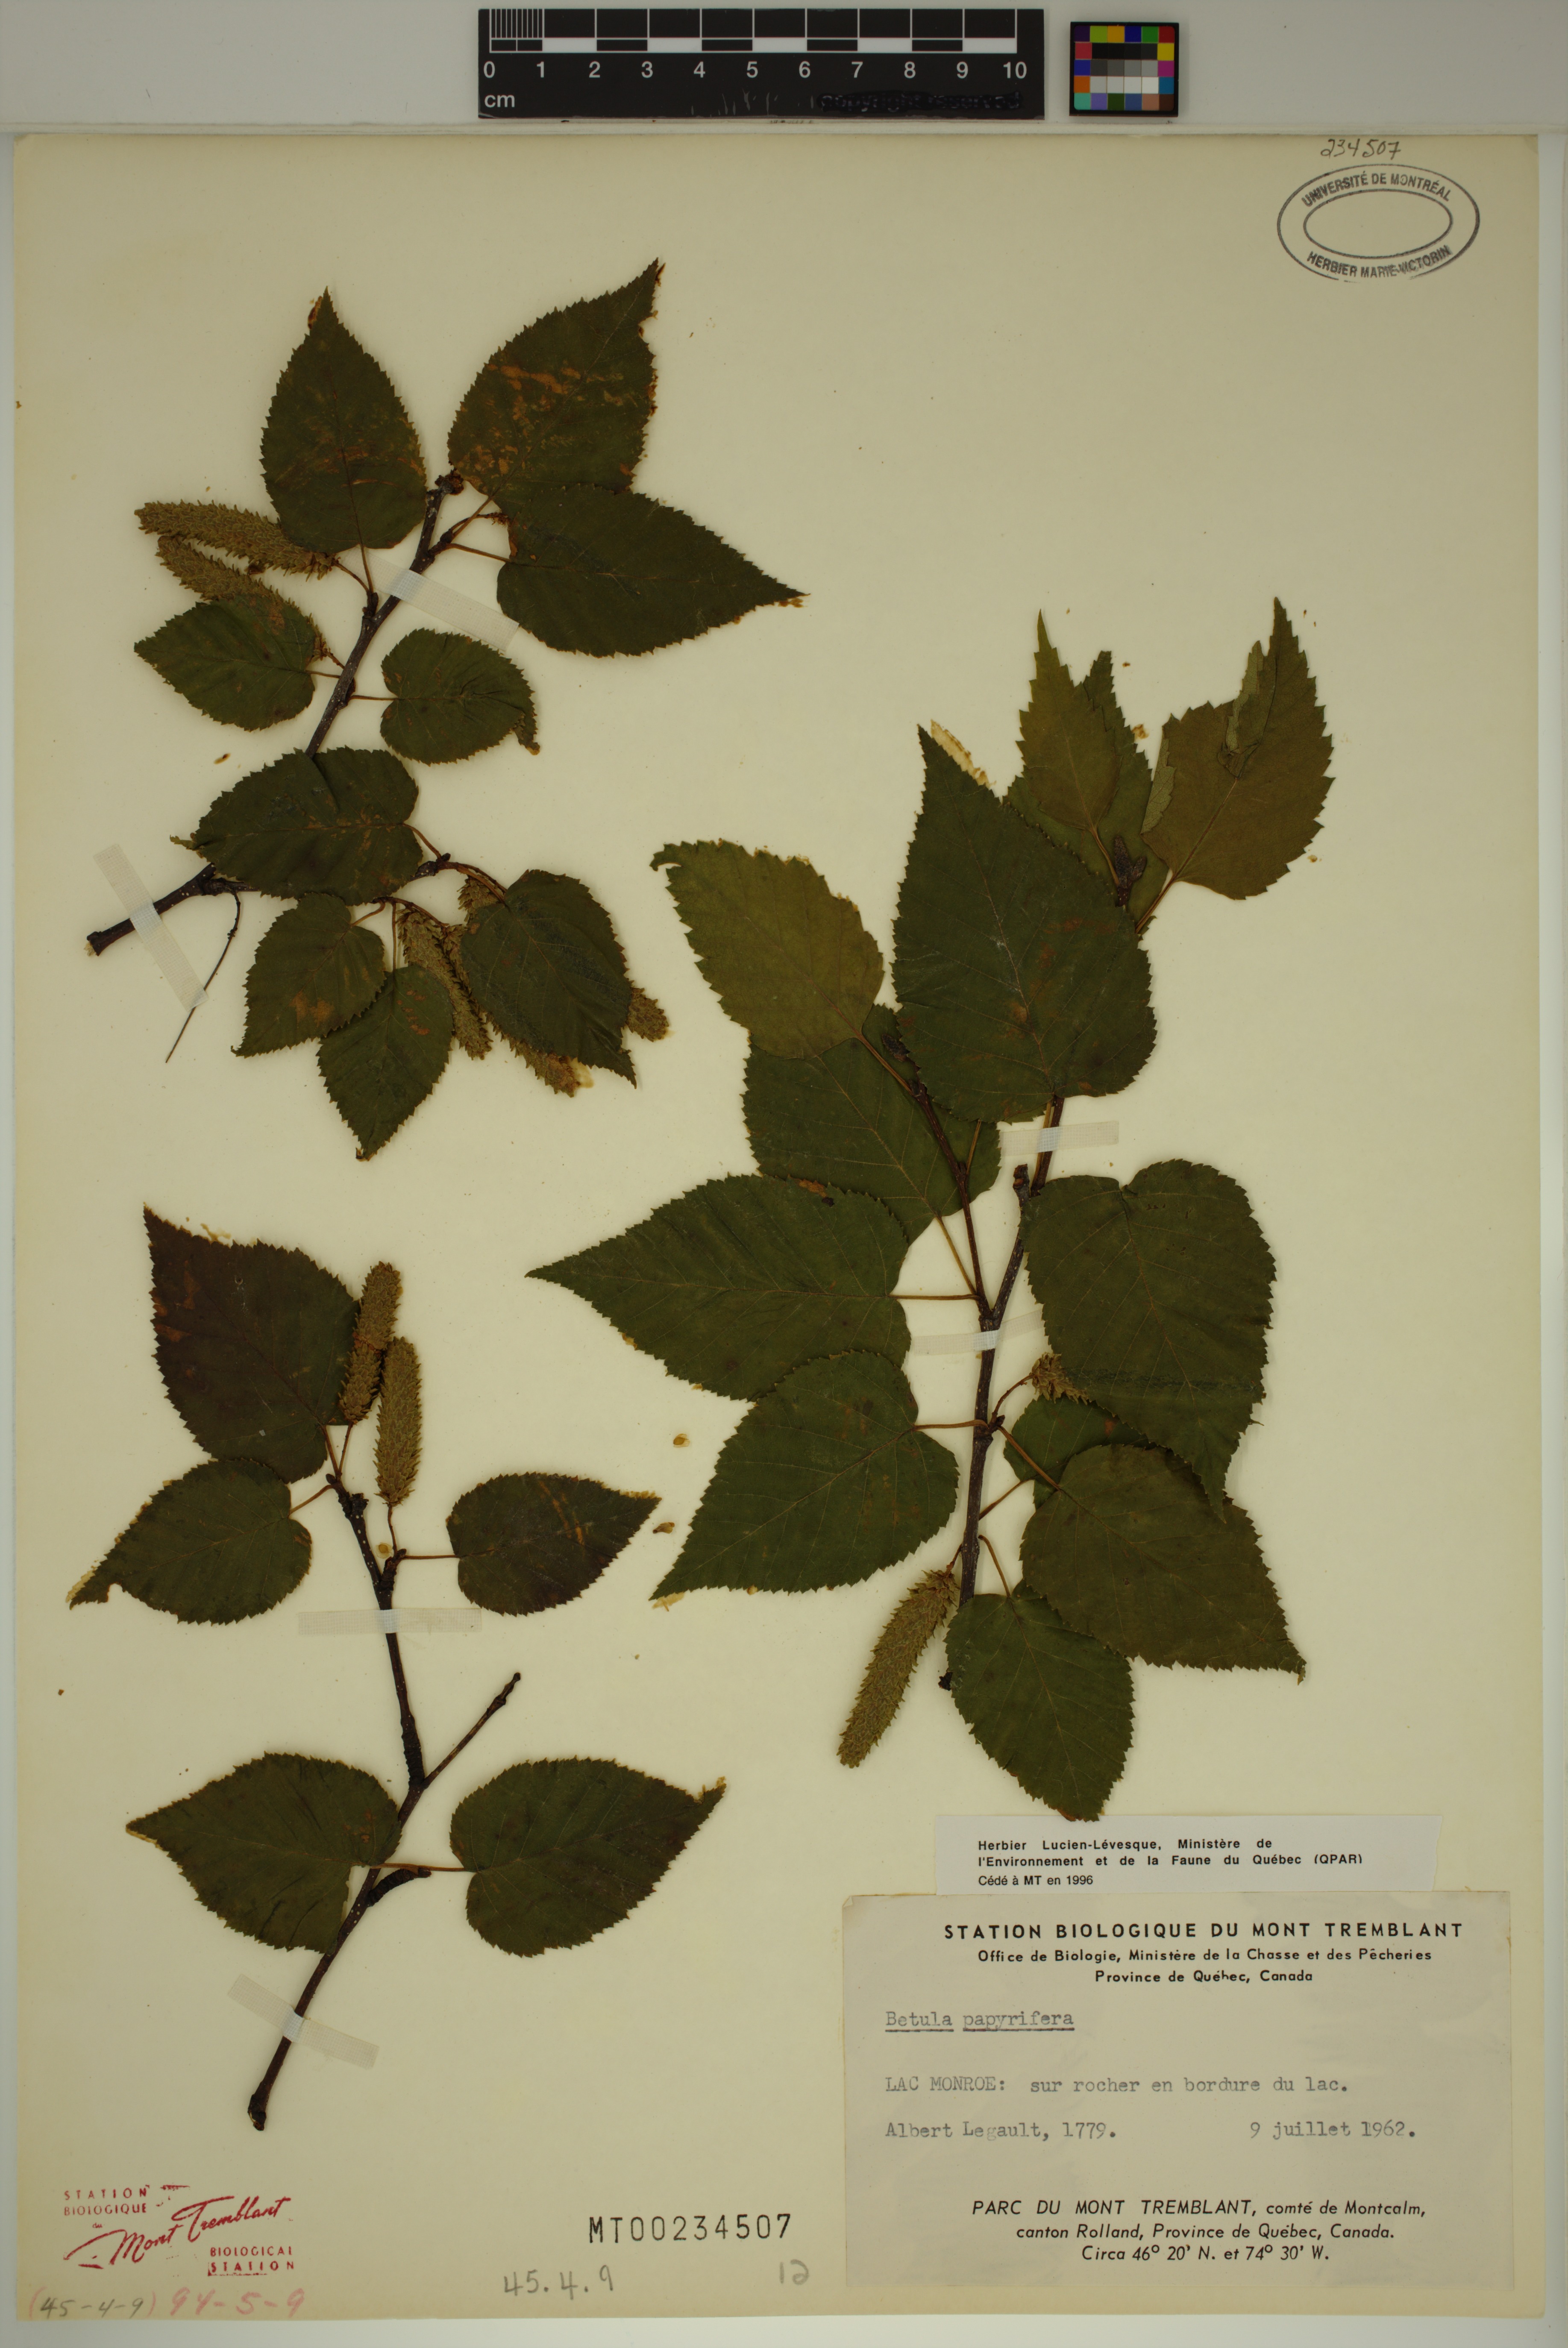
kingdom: Plantae
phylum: Tracheophyta
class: Magnoliopsida
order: Fagales
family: Betulaceae
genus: Betula
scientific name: Betula papyrifera
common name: Paper birch
